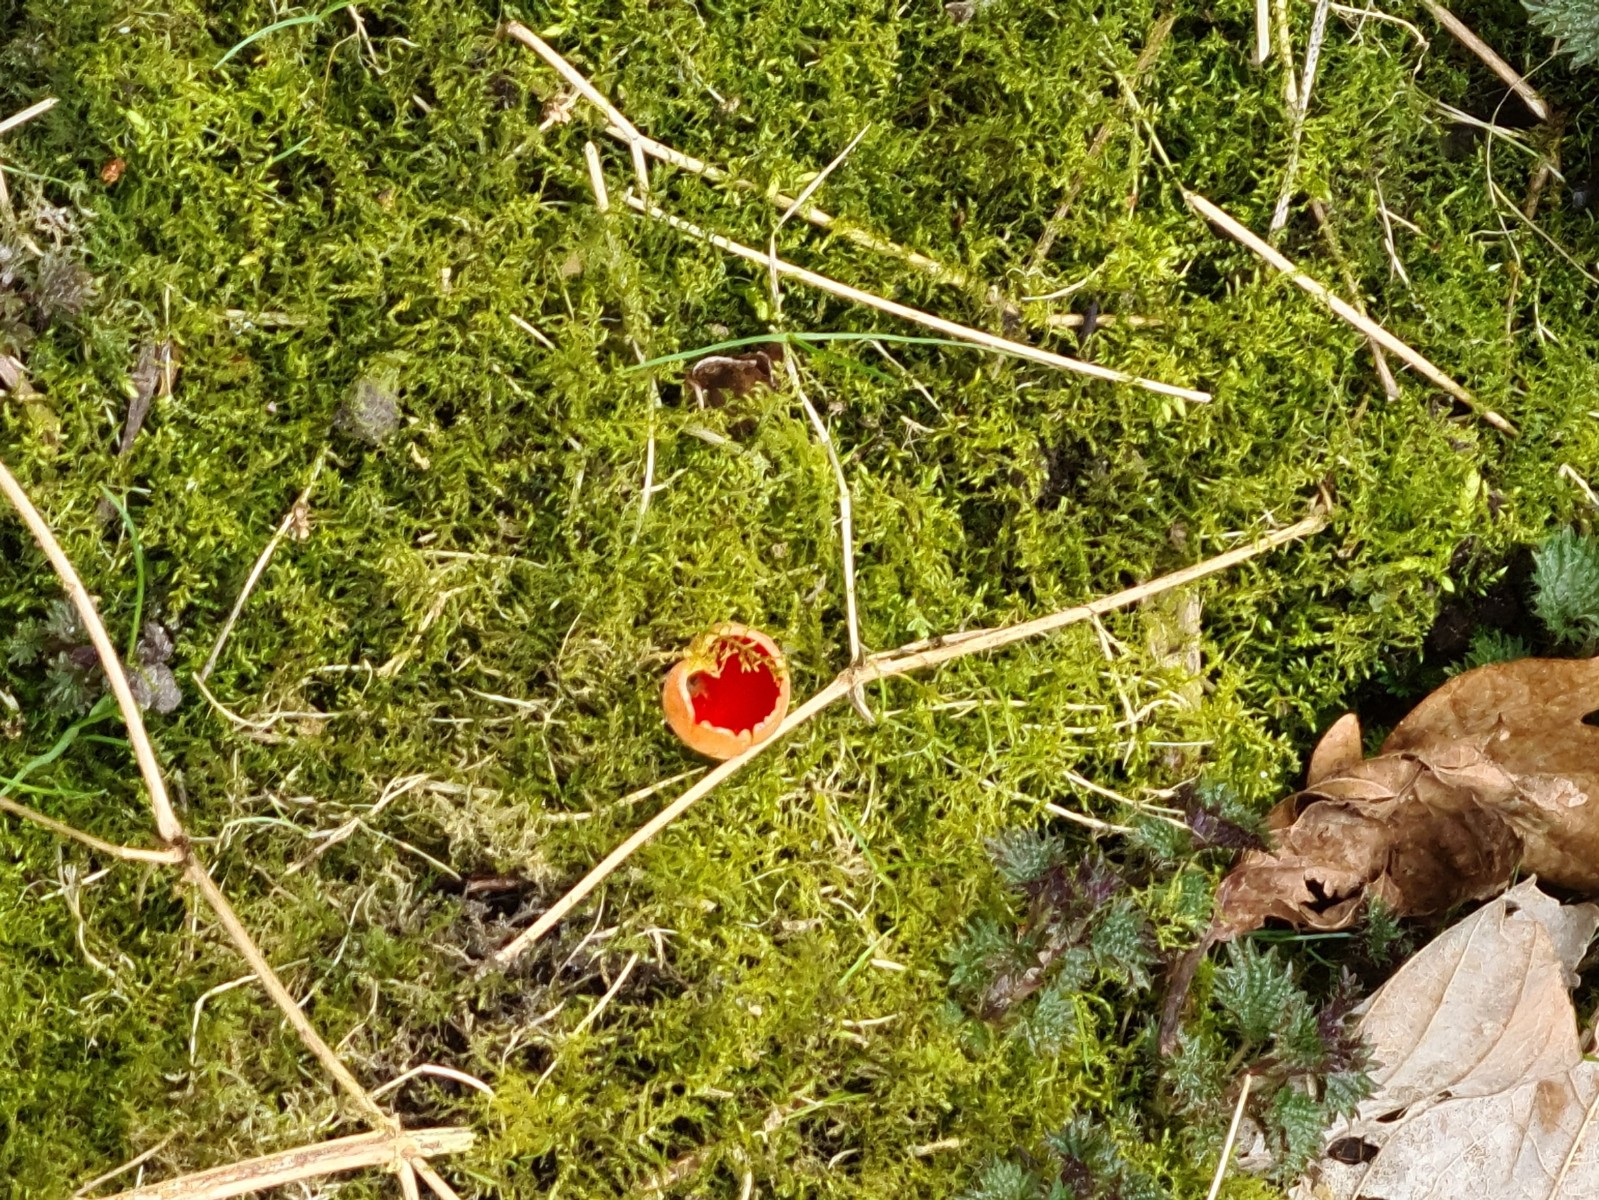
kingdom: Fungi
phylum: Ascomycota
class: Pezizomycetes
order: Pezizales
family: Sarcoscyphaceae
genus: Sarcoscypha
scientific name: Sarcoscypha austriaca
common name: krølhåret pragtbæger
